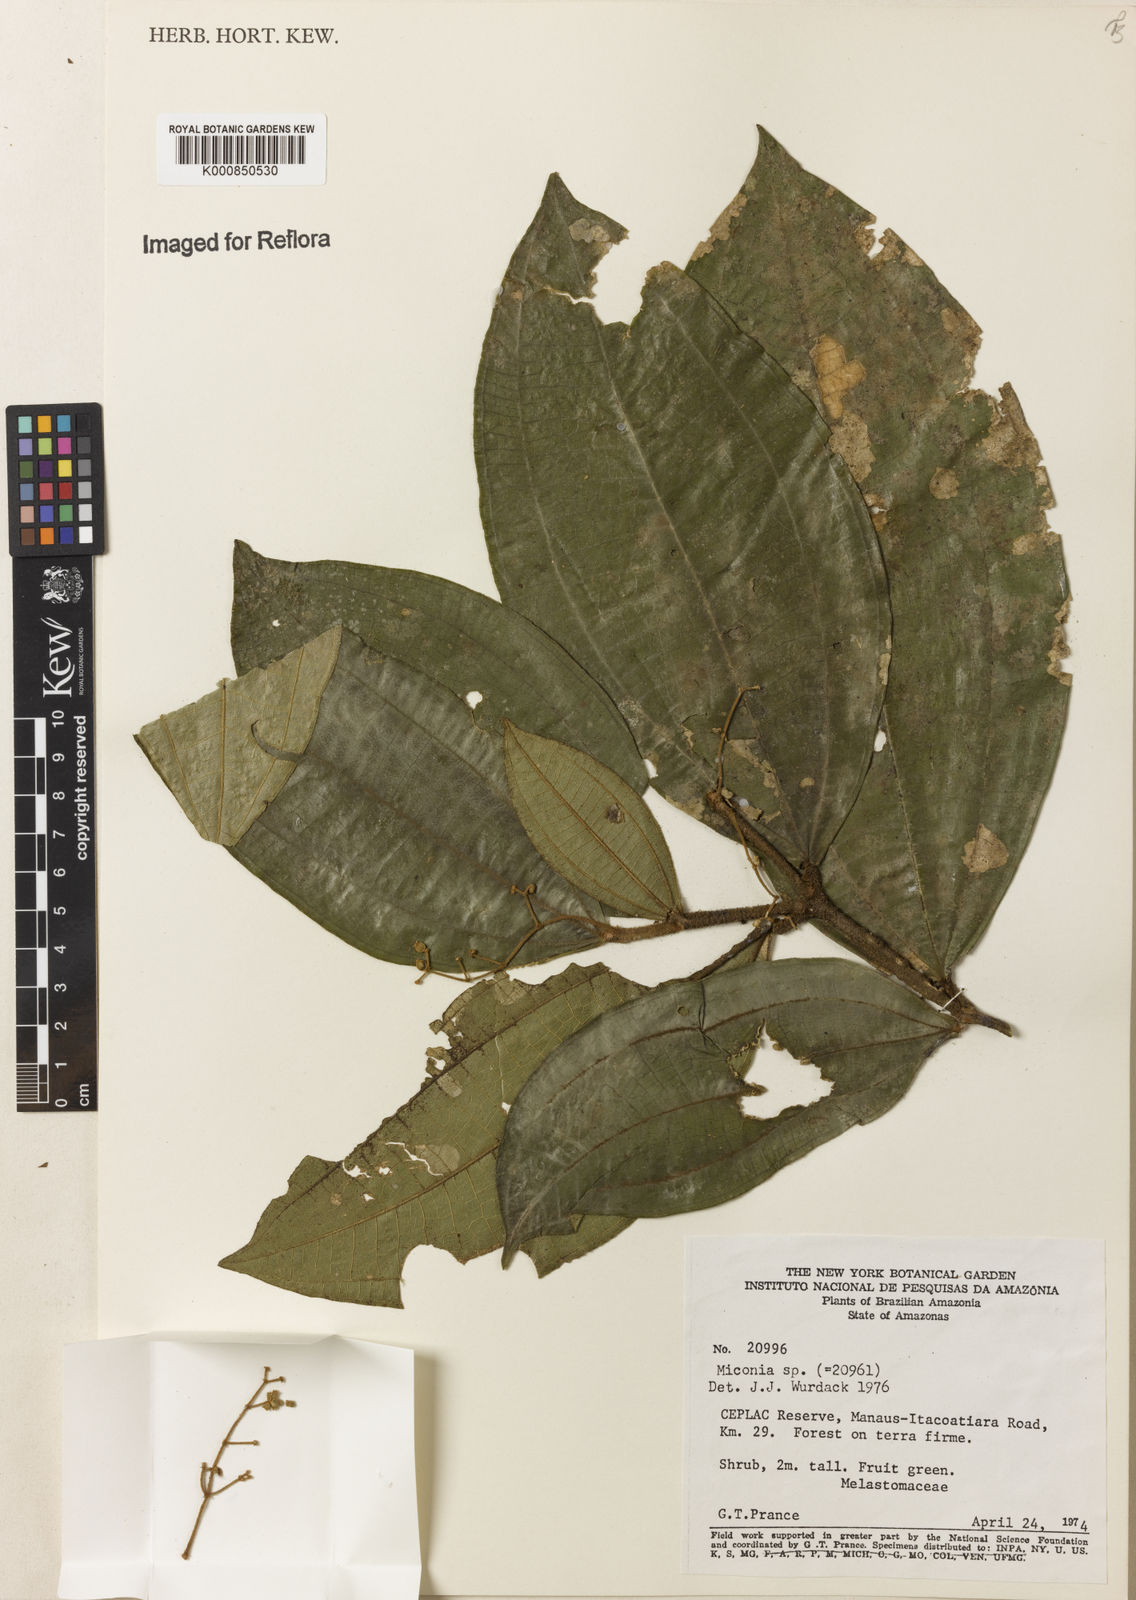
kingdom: Plantae
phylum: Tracheophyta
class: Magnoliopsida
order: Myrtales
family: Melastomataceae
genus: Miconia
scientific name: Miconia
